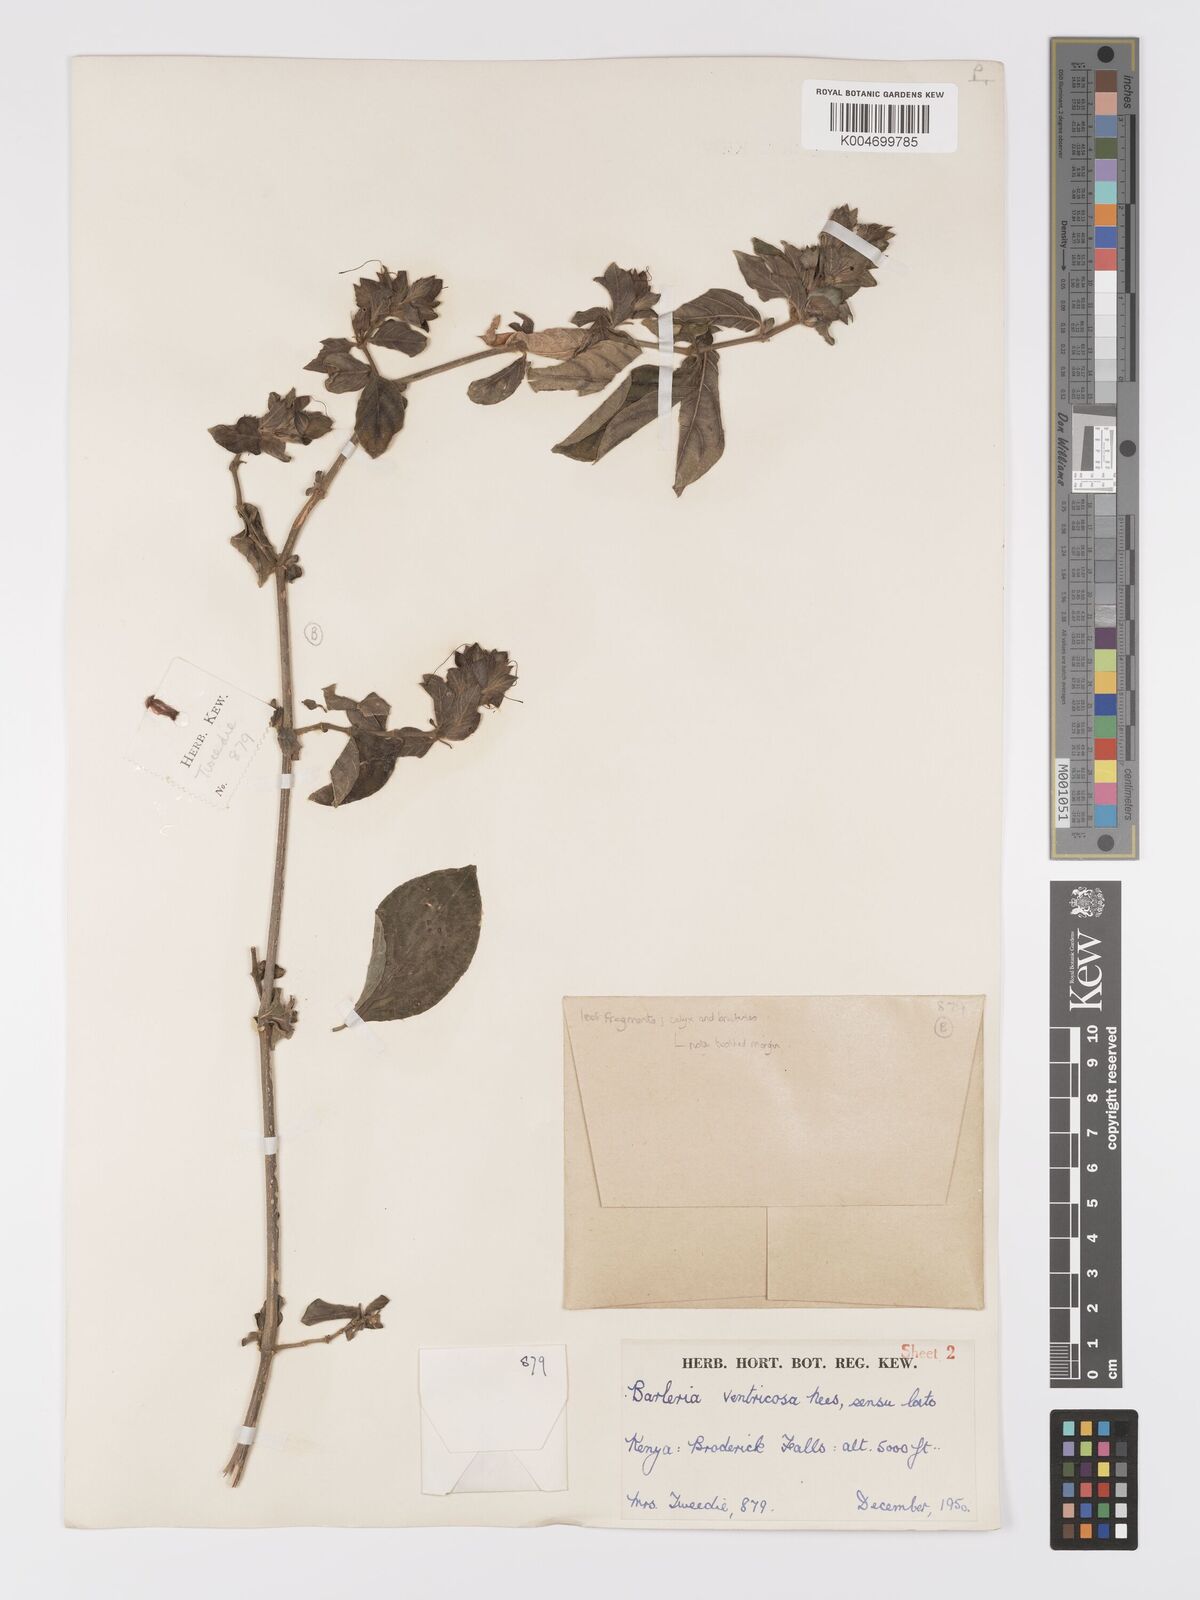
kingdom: Plantae
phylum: Tracheophyta
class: Magnoliopsida
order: Lamiales
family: Acanthaceae
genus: Barleria
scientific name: Barleria ventricosa
